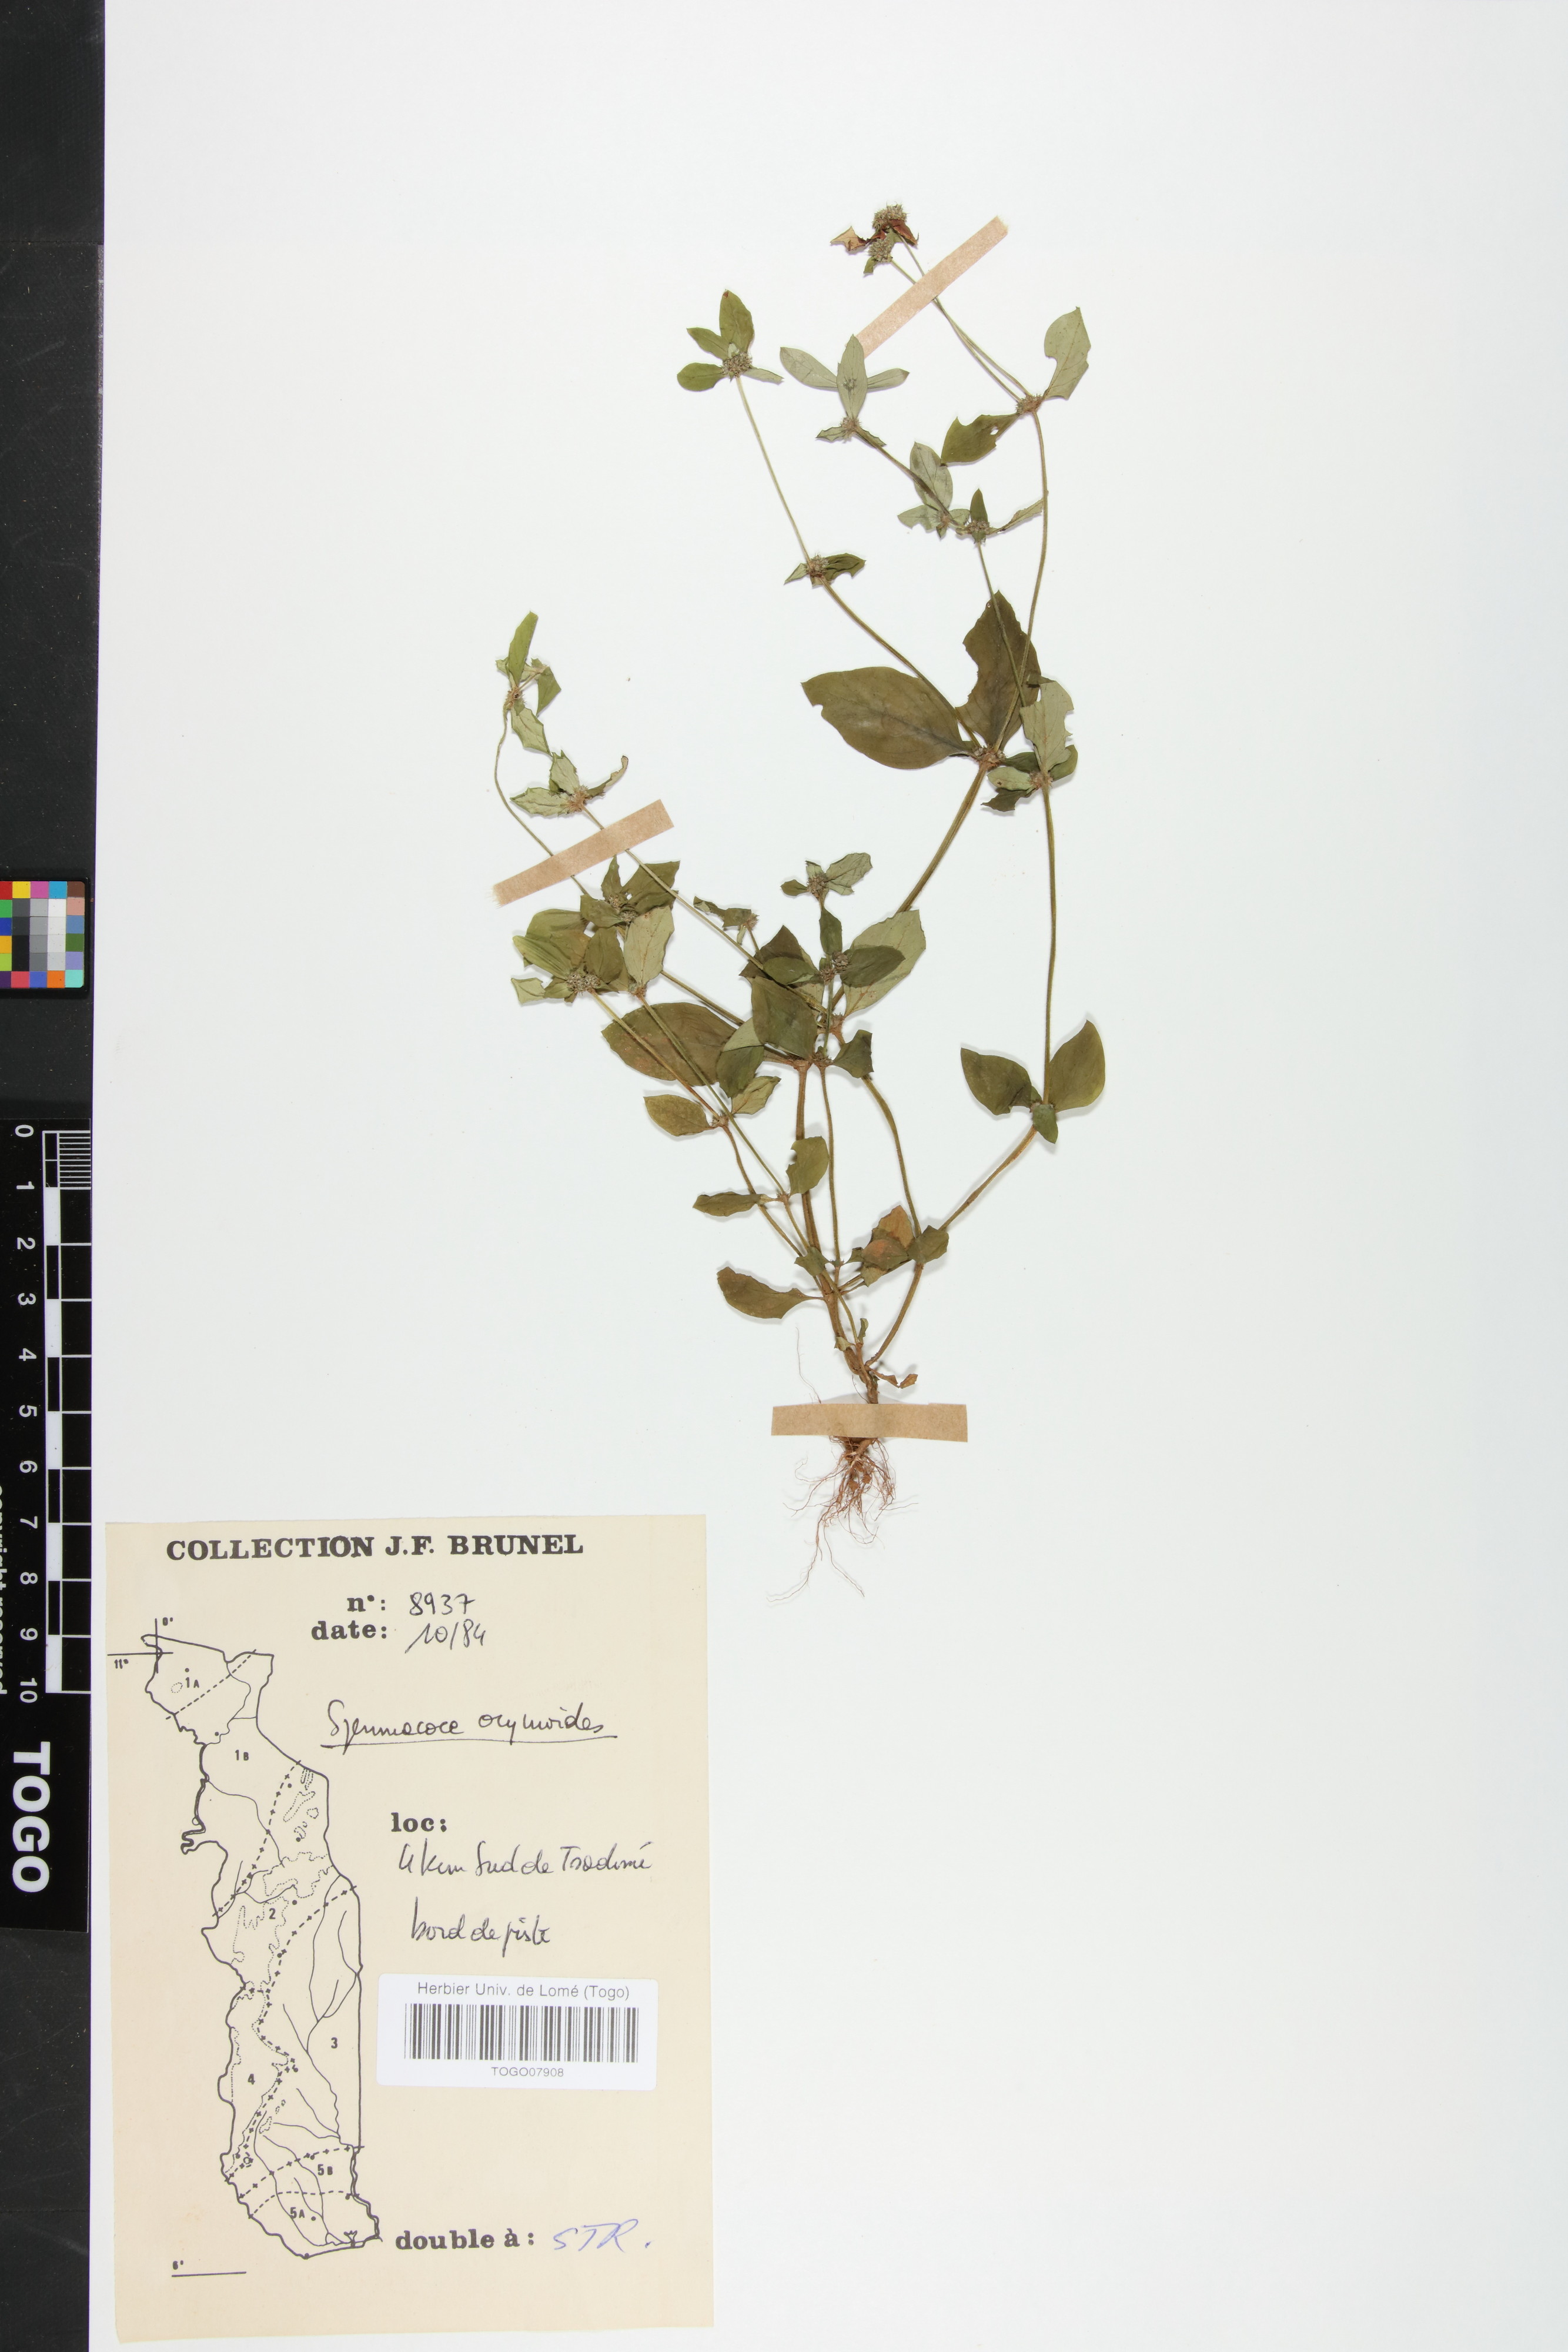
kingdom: Plantae
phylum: Tracheophyta
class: Magnoliopsida
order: Gentianales
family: Rubiaceae
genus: Spermacoce
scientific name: Spermacoce ocymoides
